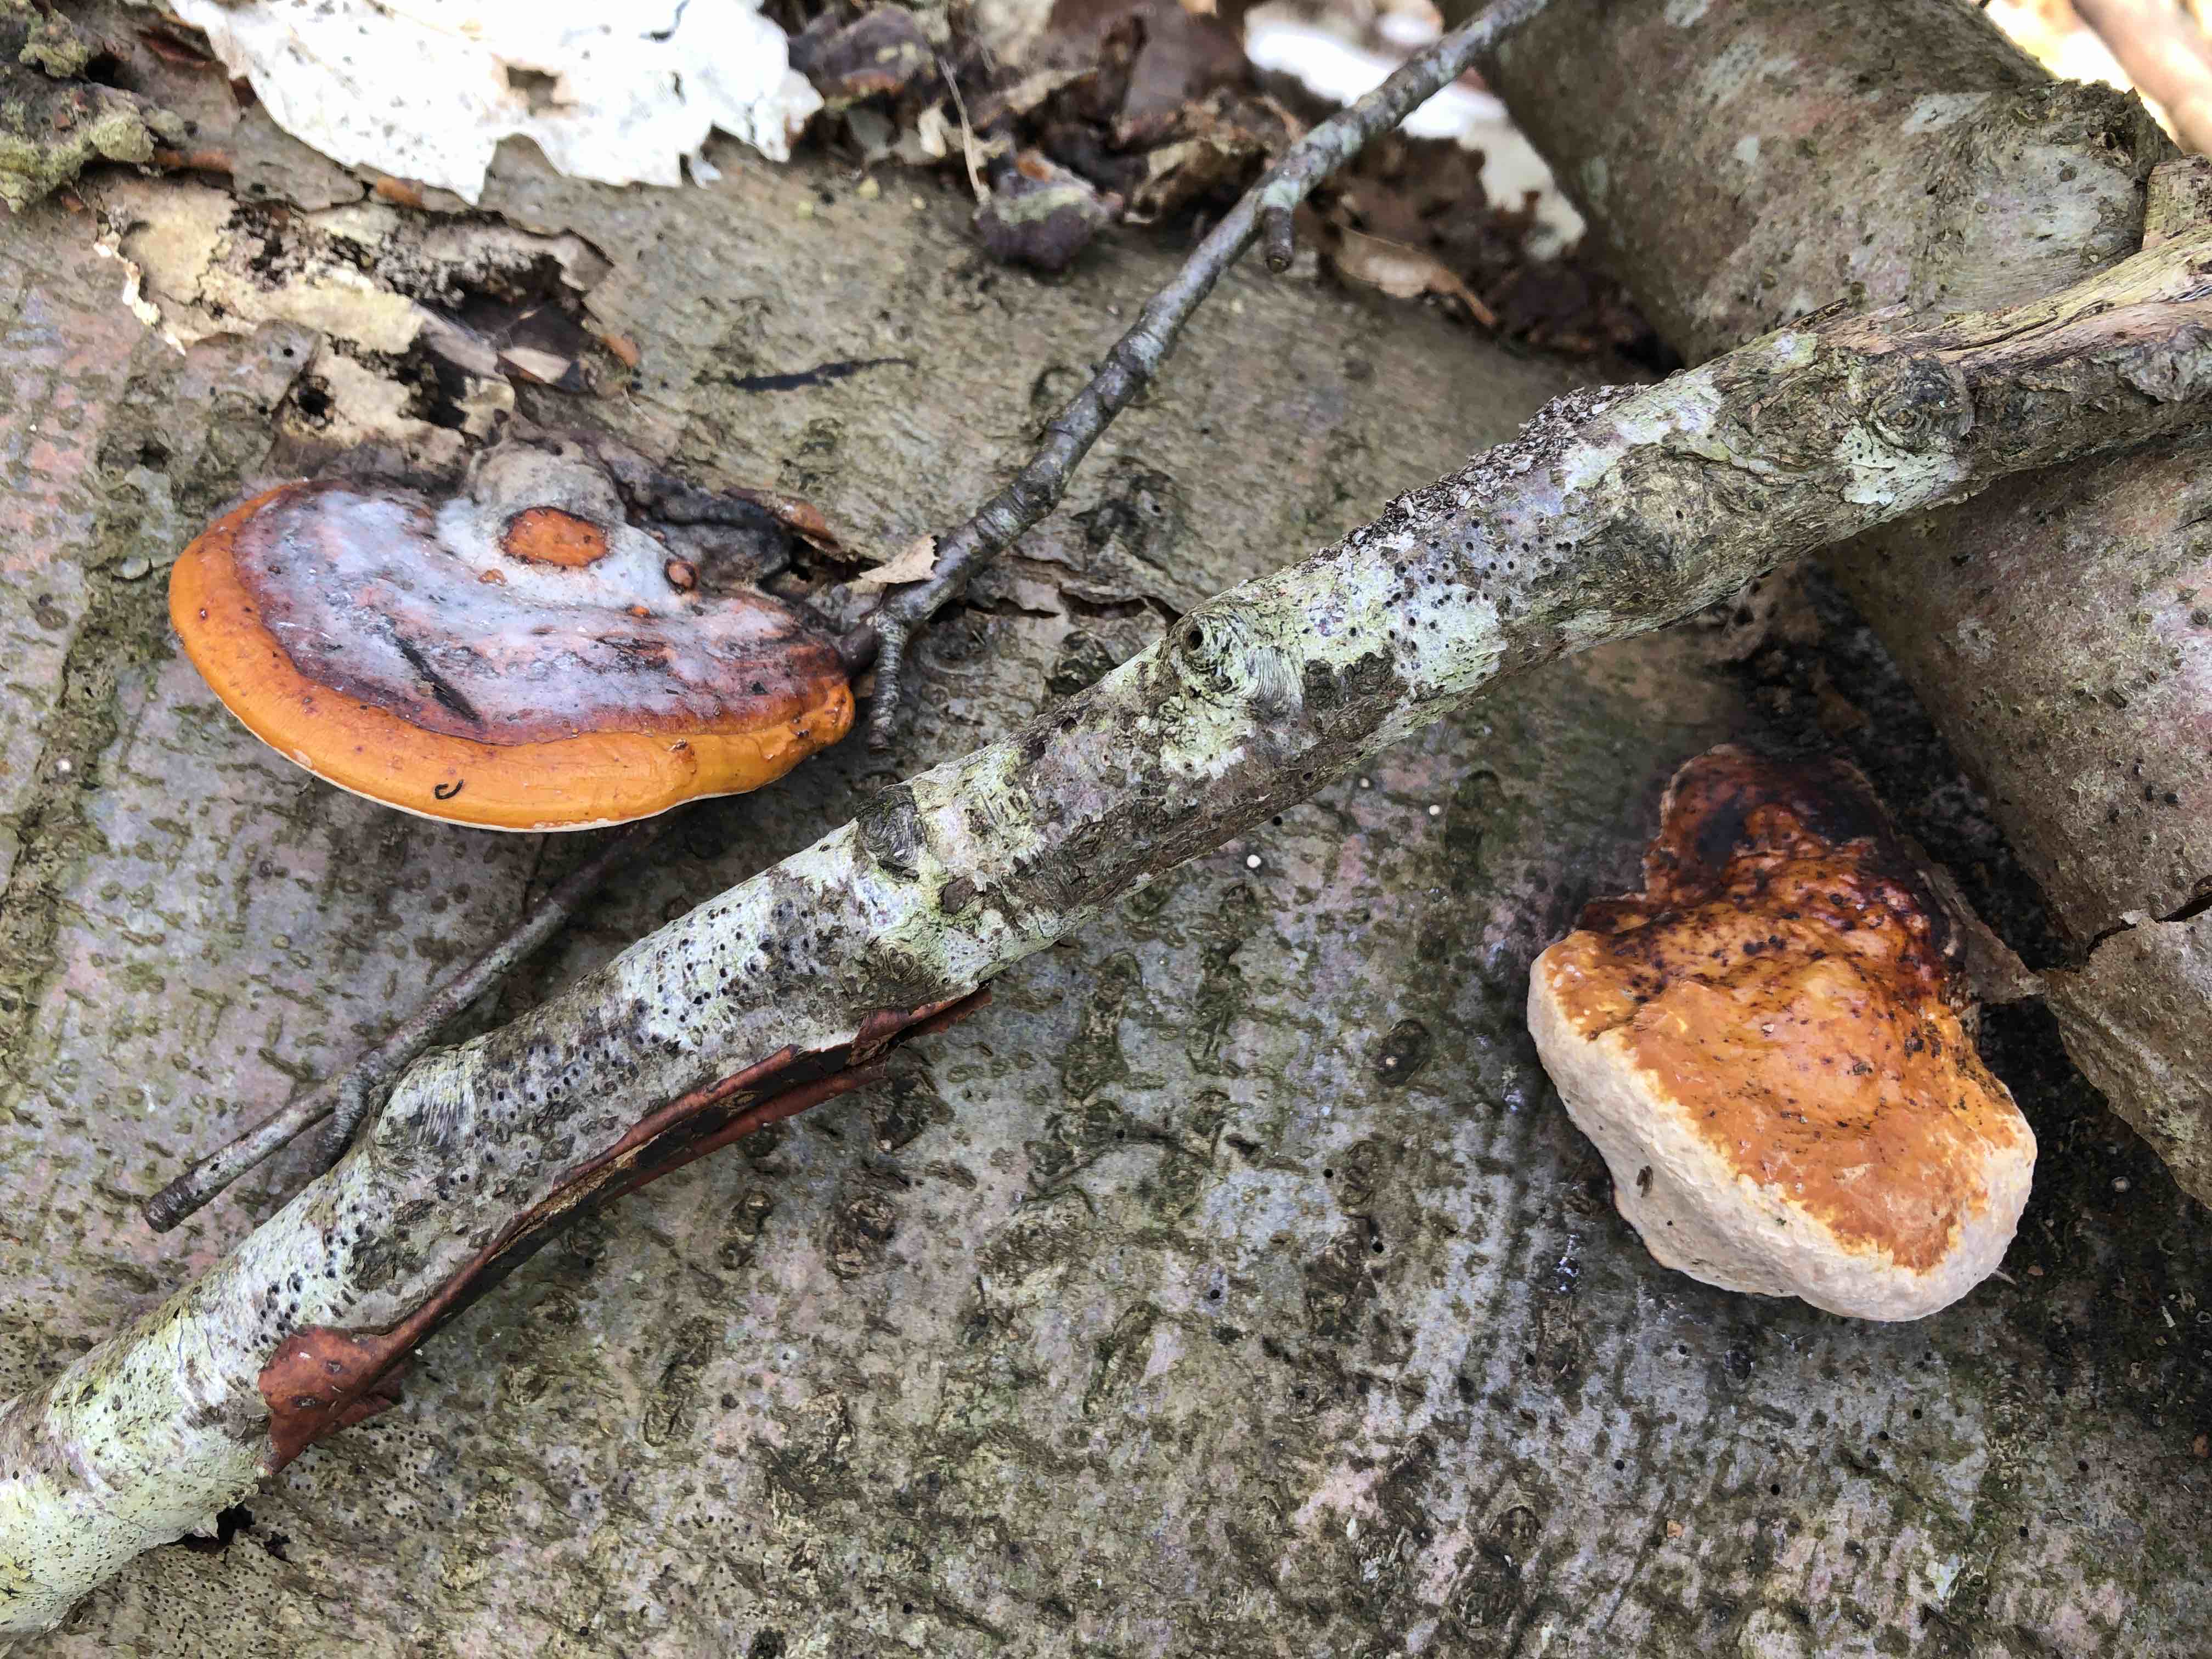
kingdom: Fungi
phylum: Basidiomycota
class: Agaricomycetes
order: Polyporales
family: Fomitopsidaceae
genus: Fomitopsis
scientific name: Fomitopsis pinicola
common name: randbæltet hovporesvamp
